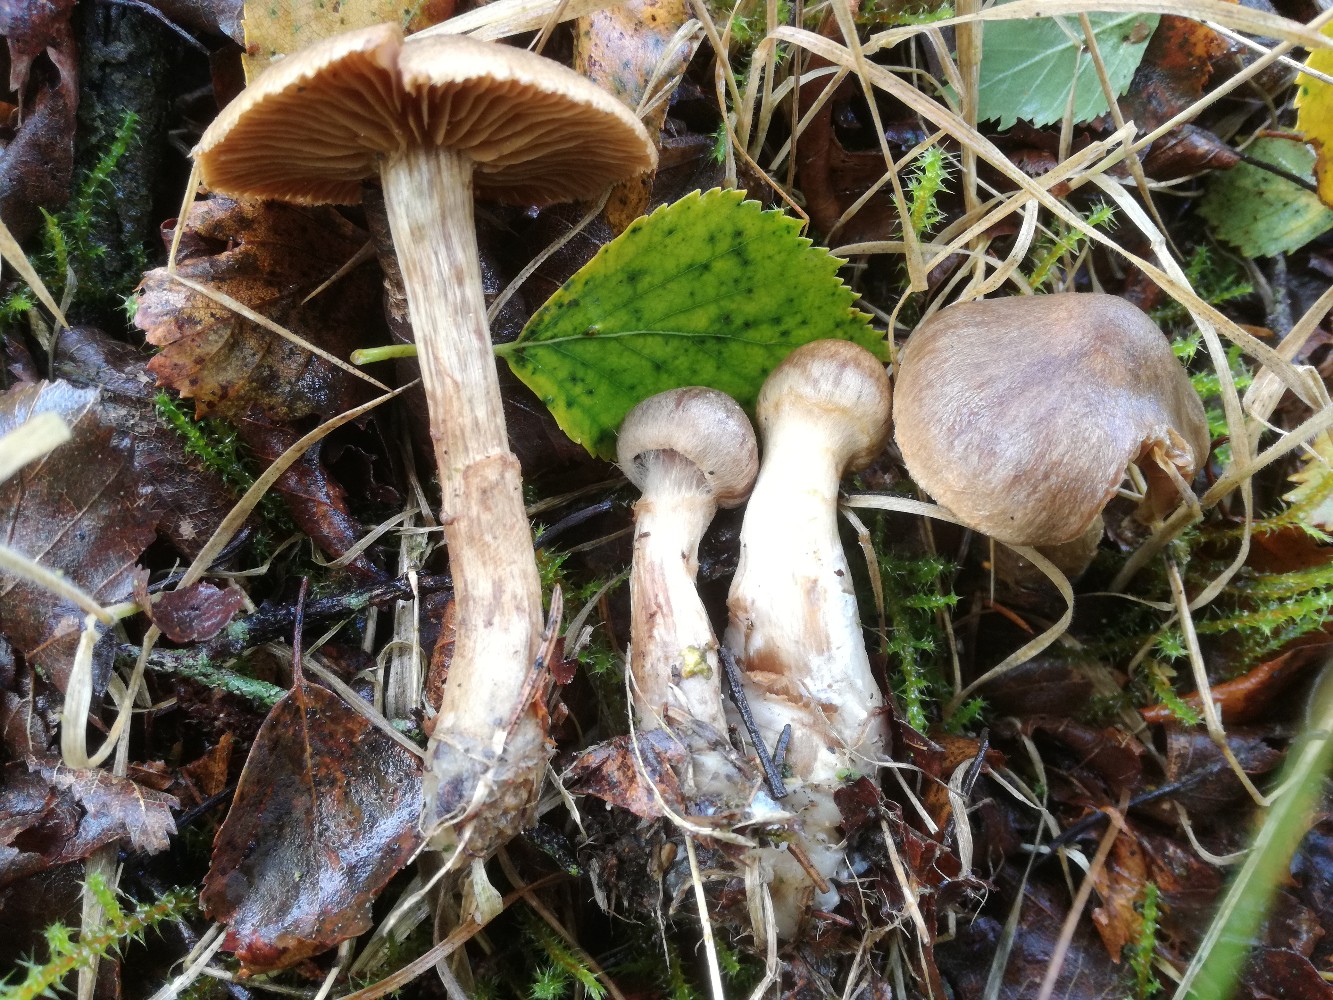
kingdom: Fungi
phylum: Basidiomycota
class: Agaricomycetes
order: Agaricales
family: Cortinariaceae
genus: Cortinarius
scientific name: Cortinarius raphanoides
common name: ræddike-slørhat
